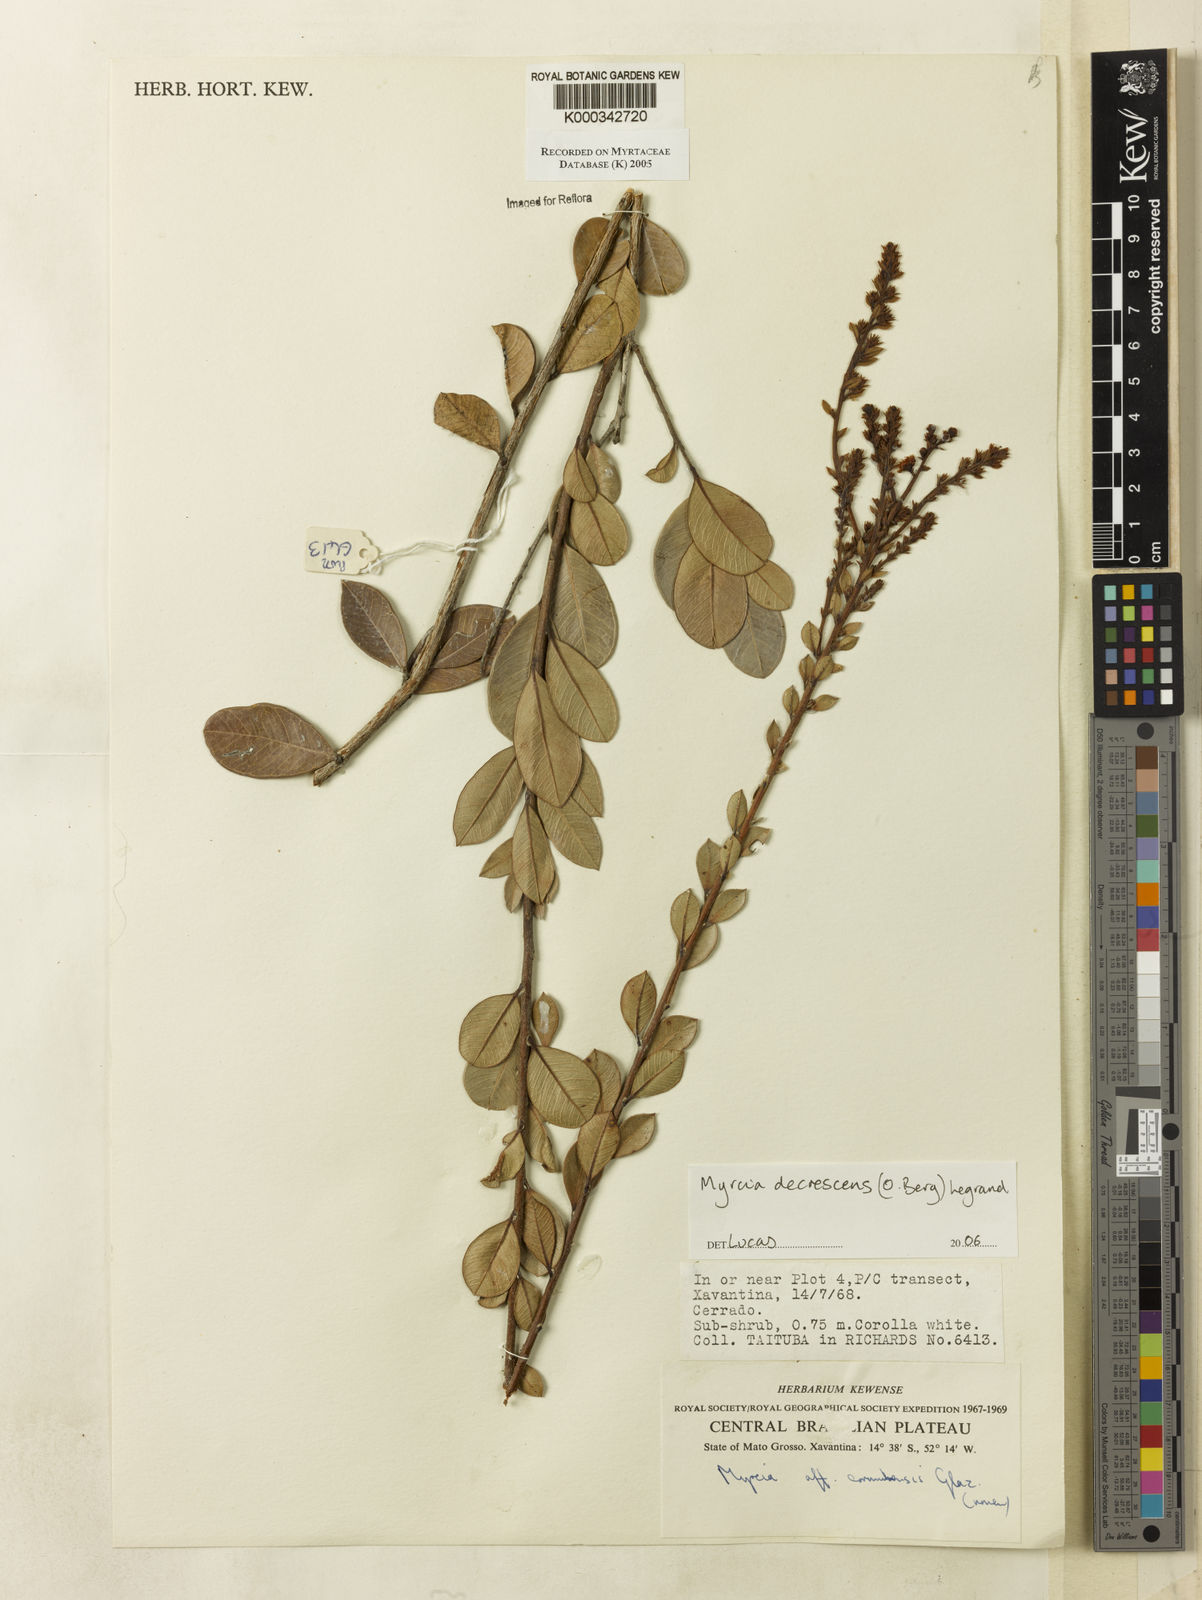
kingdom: Plantae
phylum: Tracheophyta
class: Magnoliopsida
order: Myrtales
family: Myrtaceae
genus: Myrcia
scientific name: Myrcia
